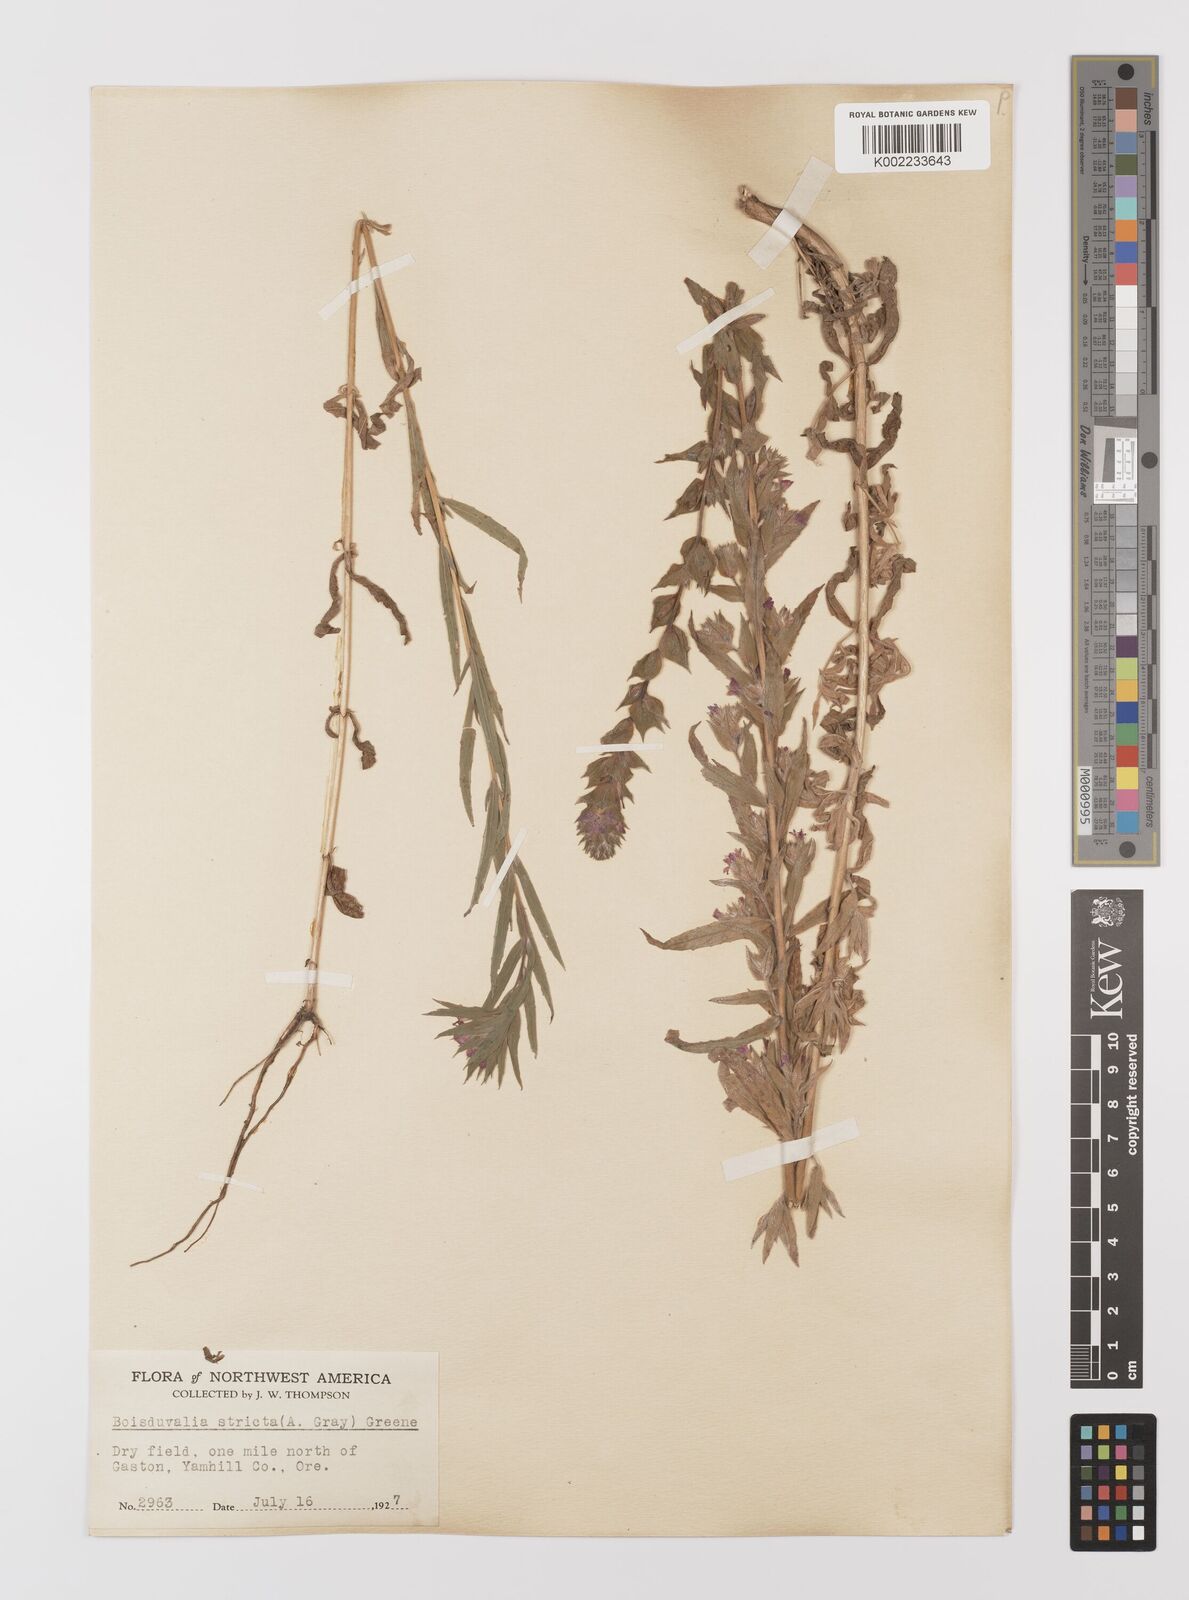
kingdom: Plantae
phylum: Tracheophyta
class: Magnoliopsida
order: Myrtales
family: Onagraceae
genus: Epilobium
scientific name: Epilobium densiflorum
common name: Dense spike-primrose
